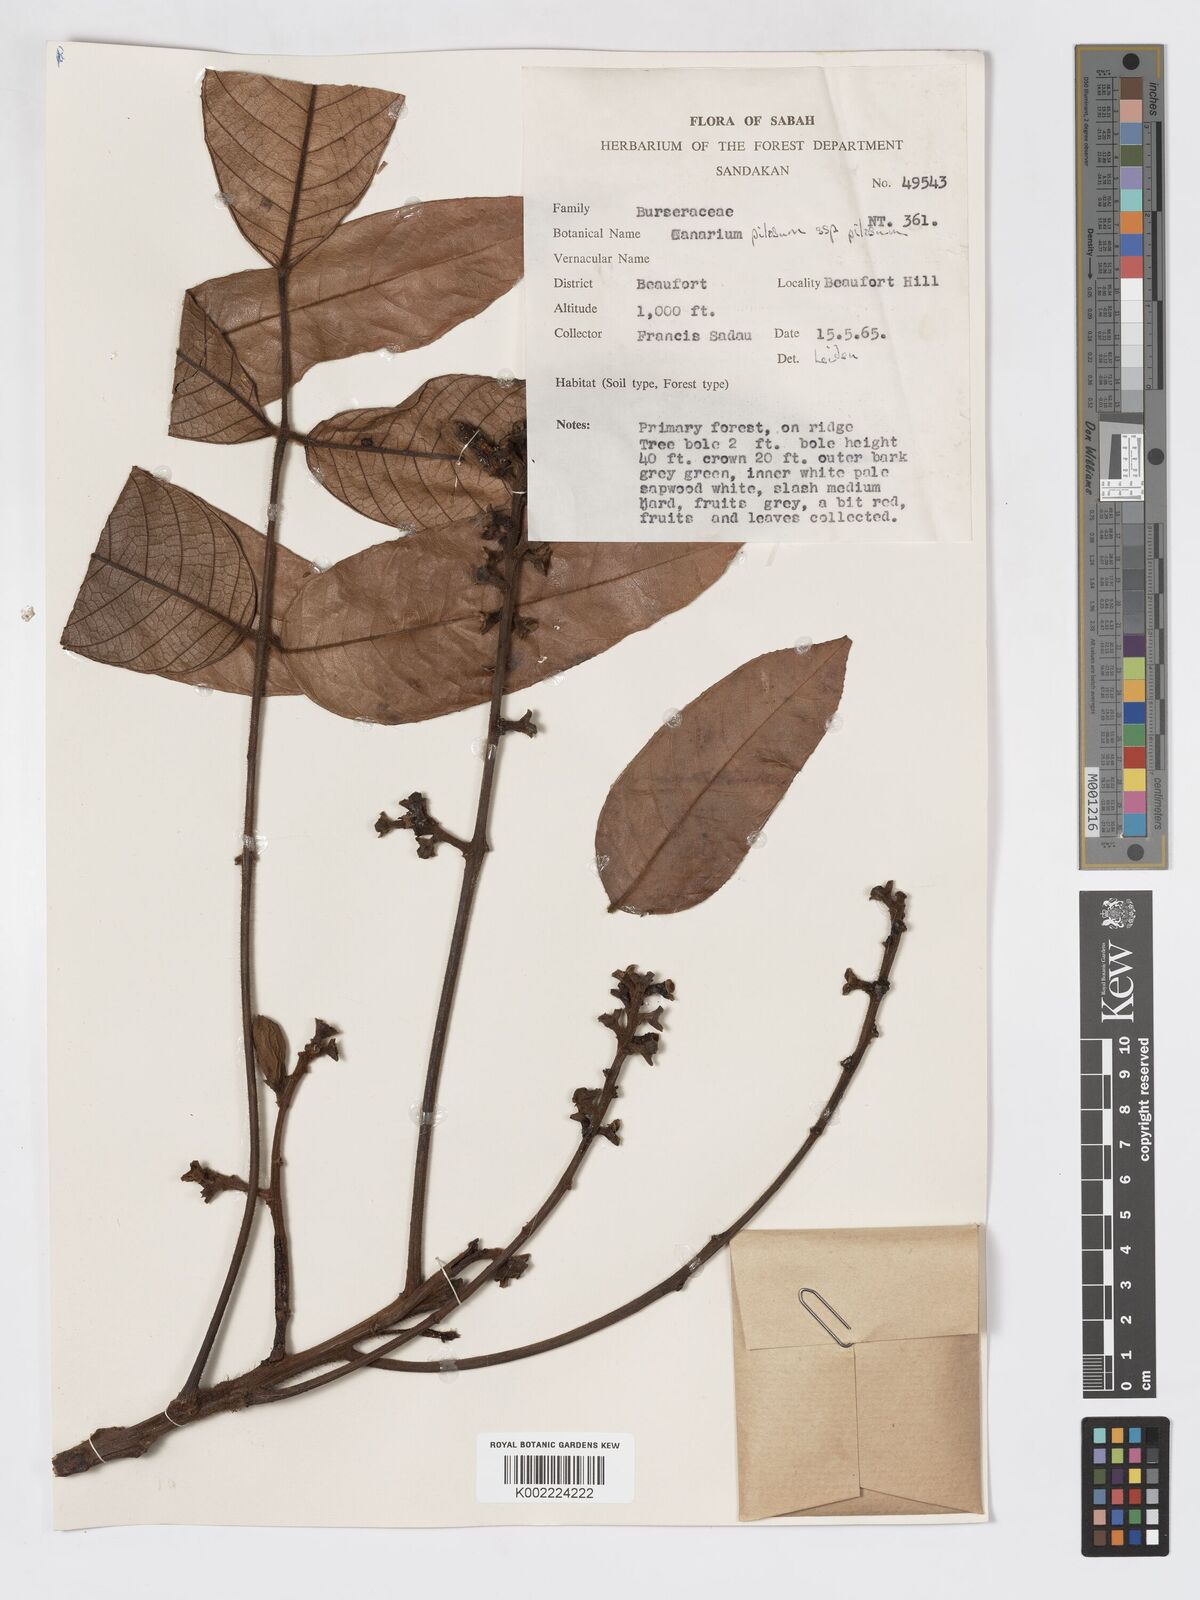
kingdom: Plantae
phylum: Tracheophyta
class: Magnoliopsida
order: Sapindales
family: Burseraceae
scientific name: Burseraceae
